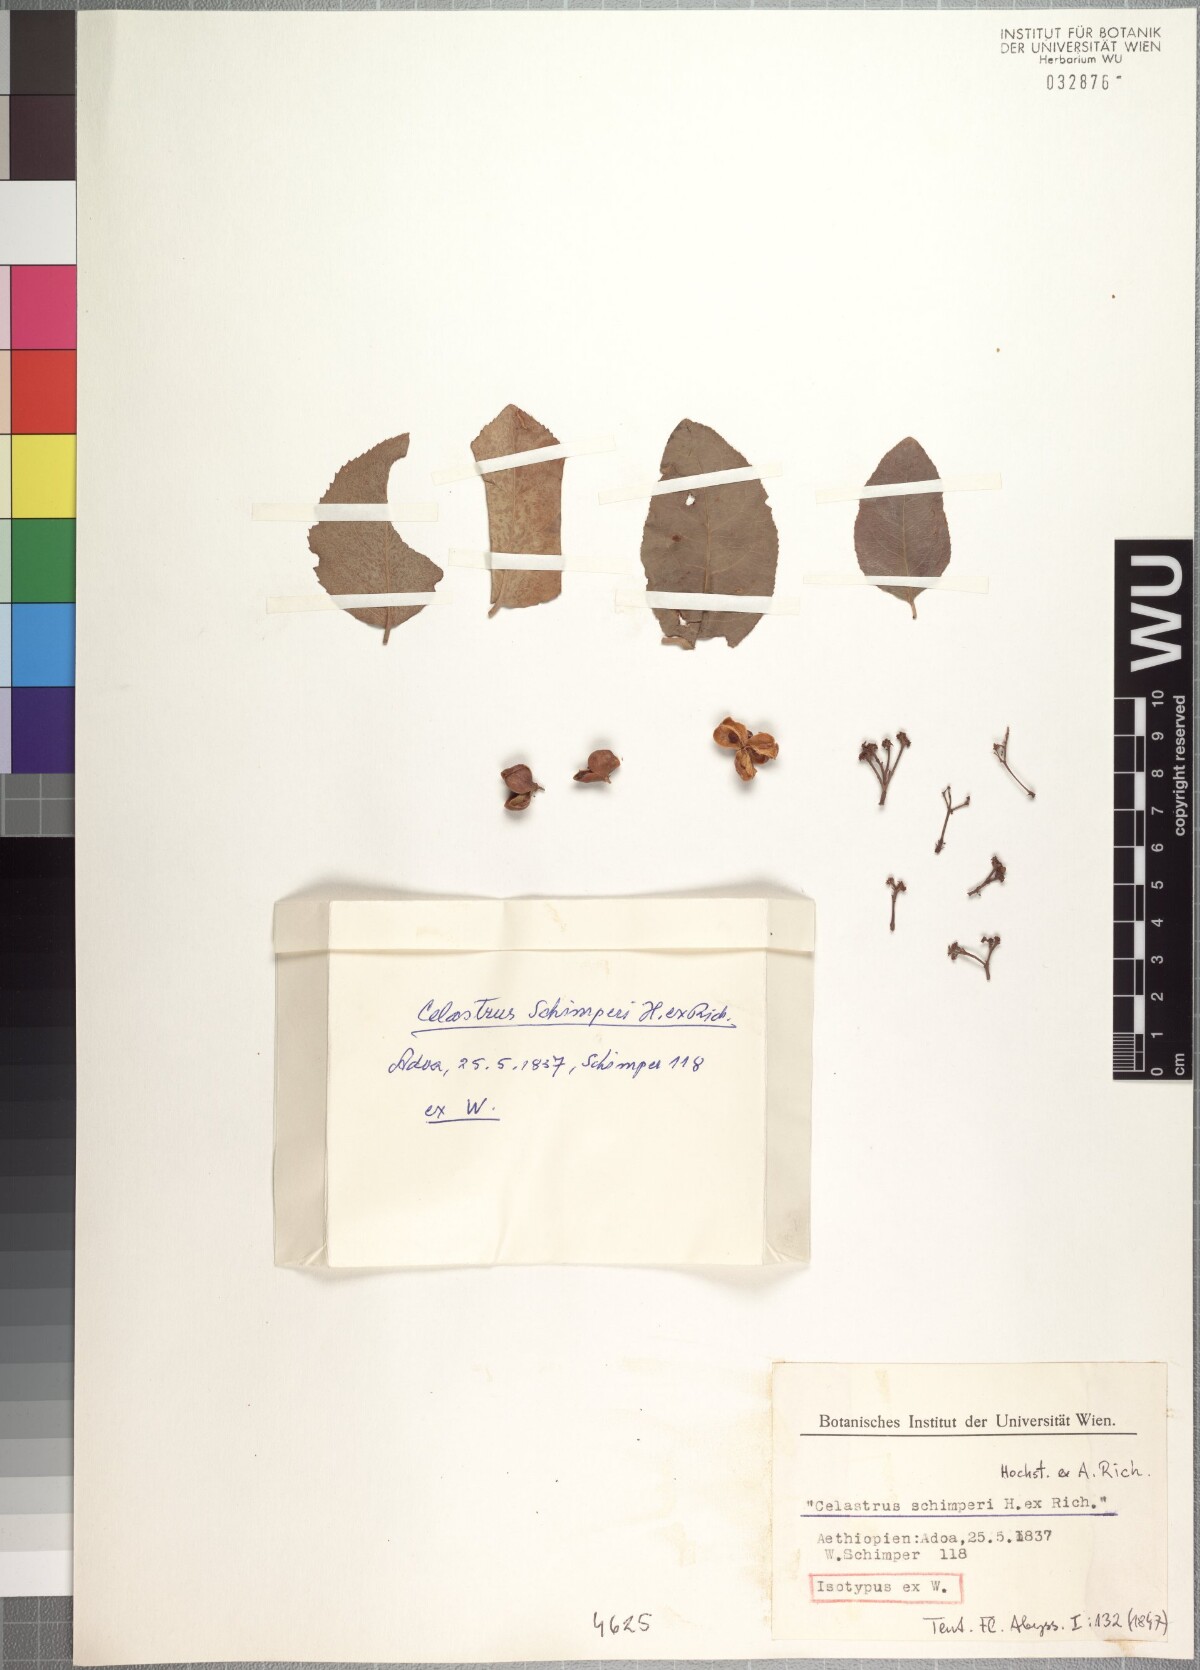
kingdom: Plantae
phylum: Tracheophyta
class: Magnoliopsida
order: Celastrales
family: Celastraceae
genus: Gymnosporia
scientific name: Gymnosporia serrata
